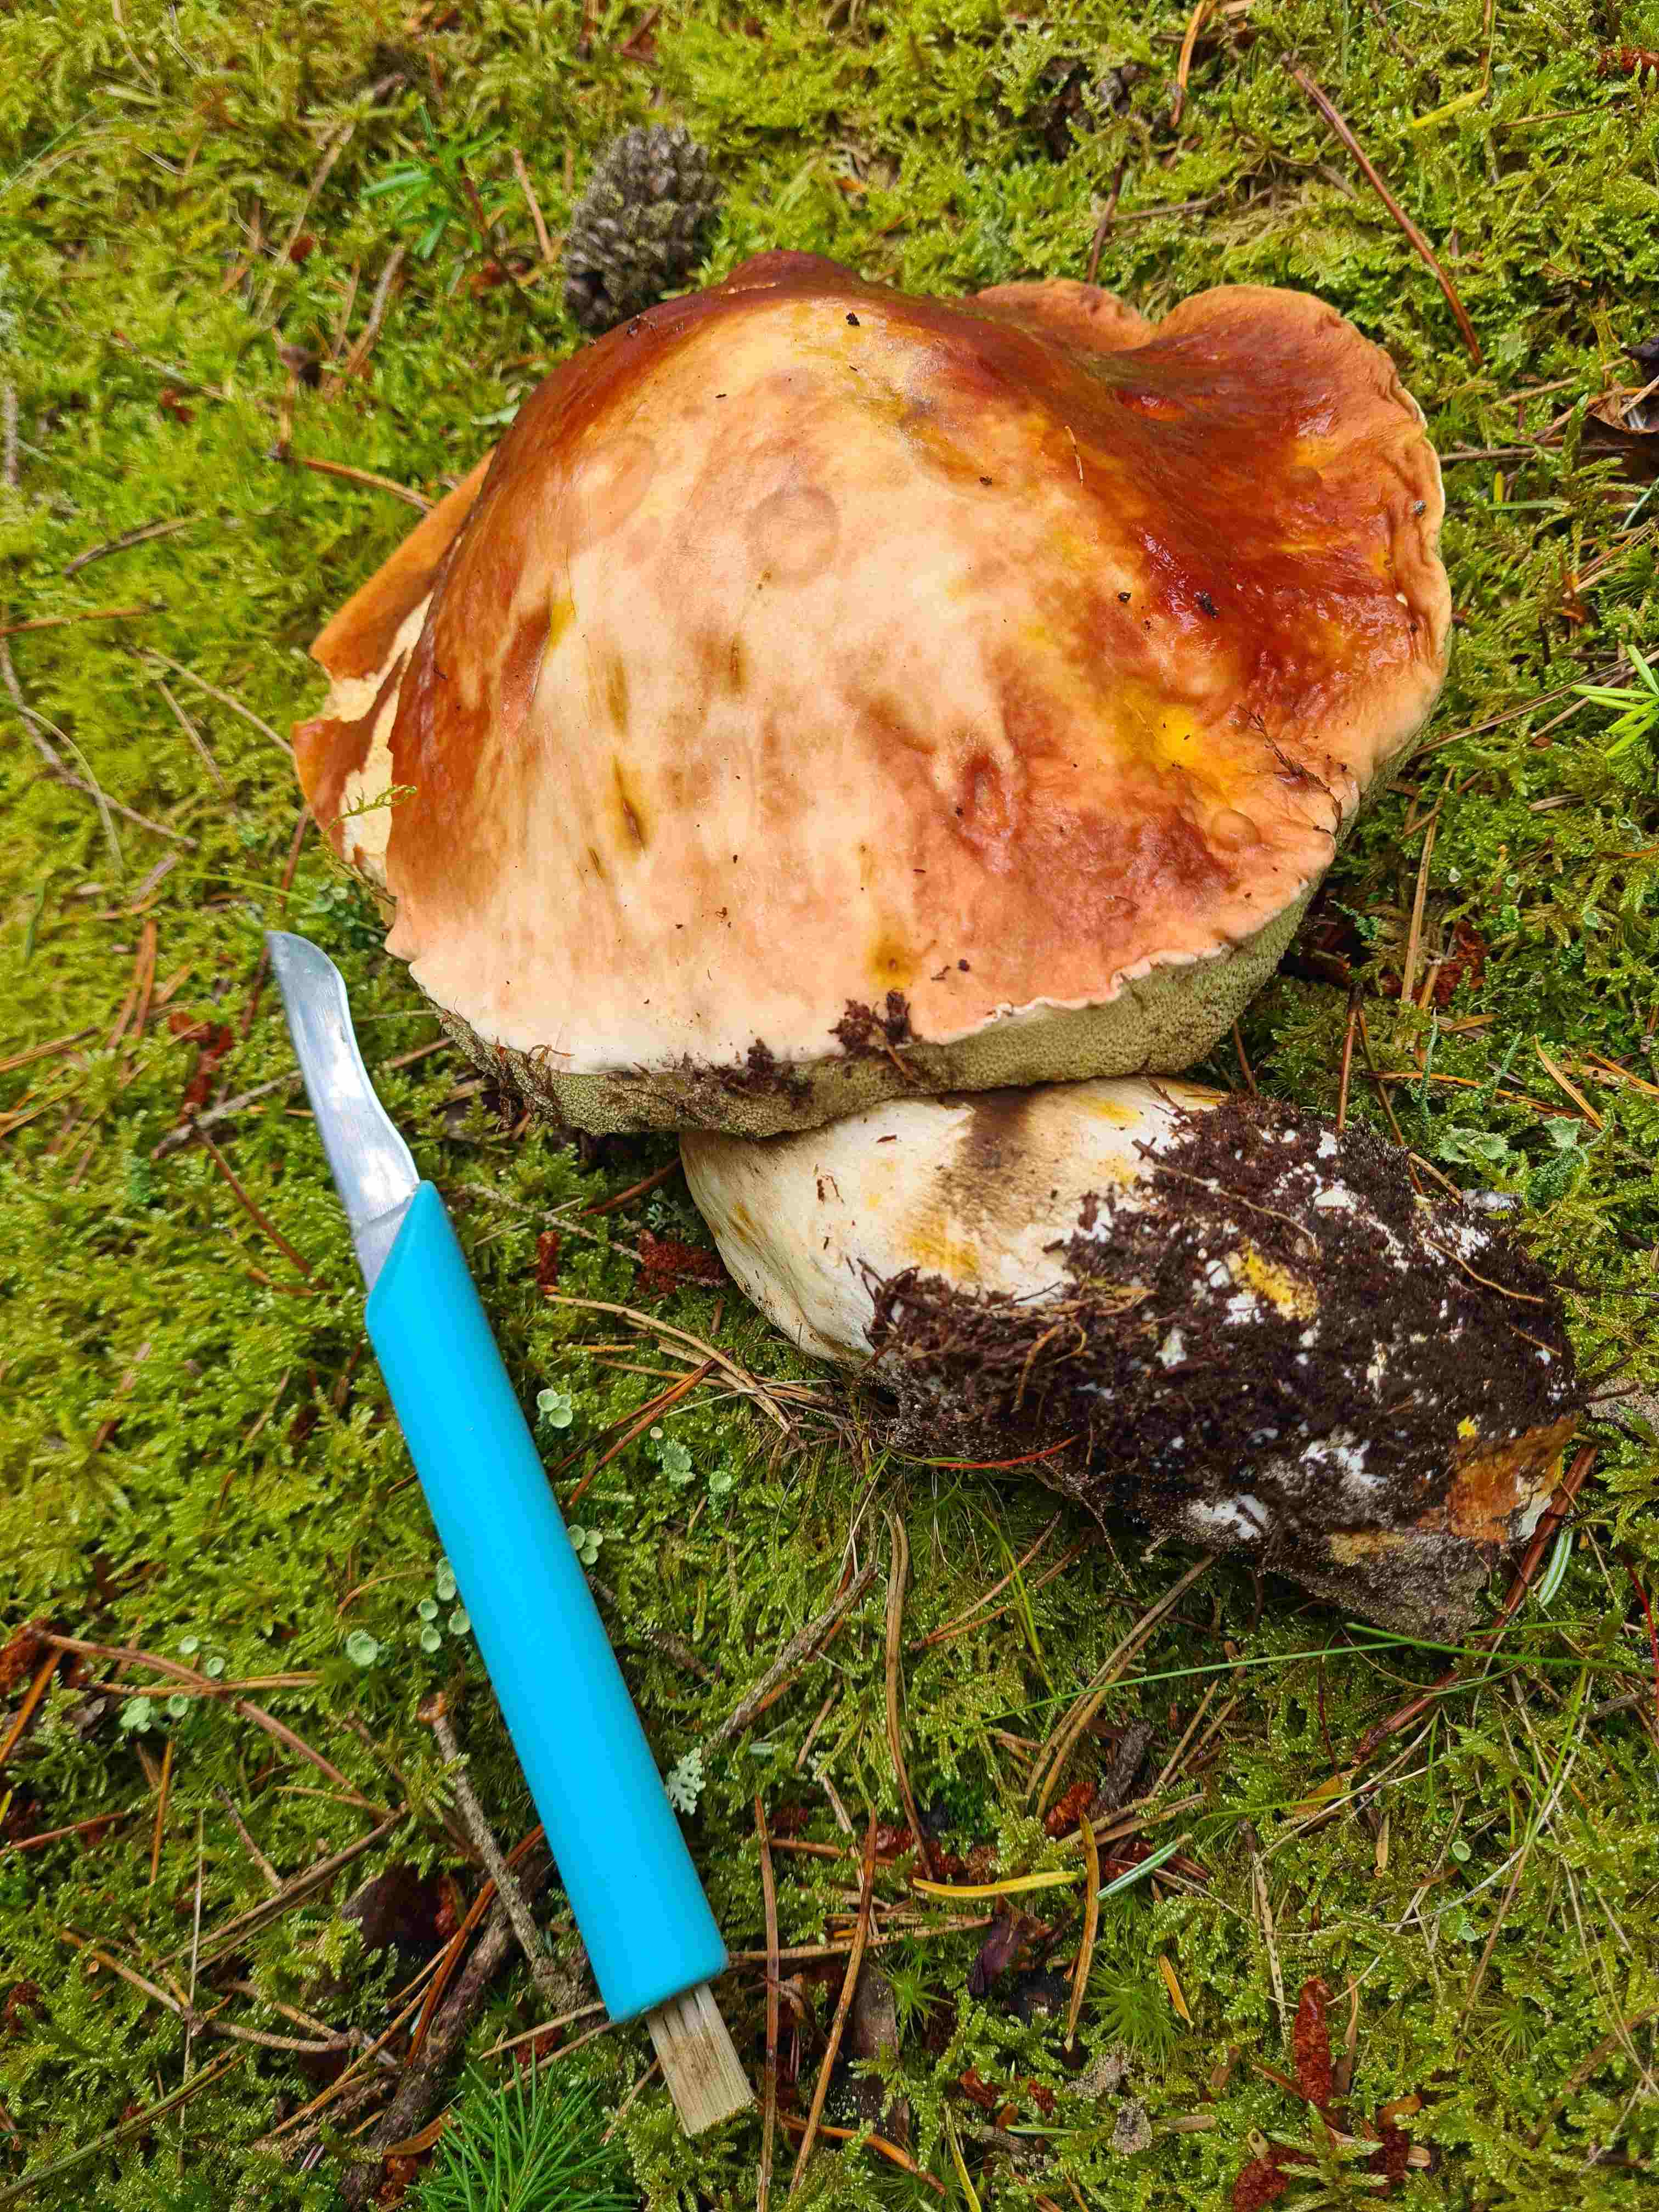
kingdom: Fungi
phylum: Basidiomycota
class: Agaricomycetes
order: Boletales
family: Boletaceae
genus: Boletus
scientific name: Boletus
